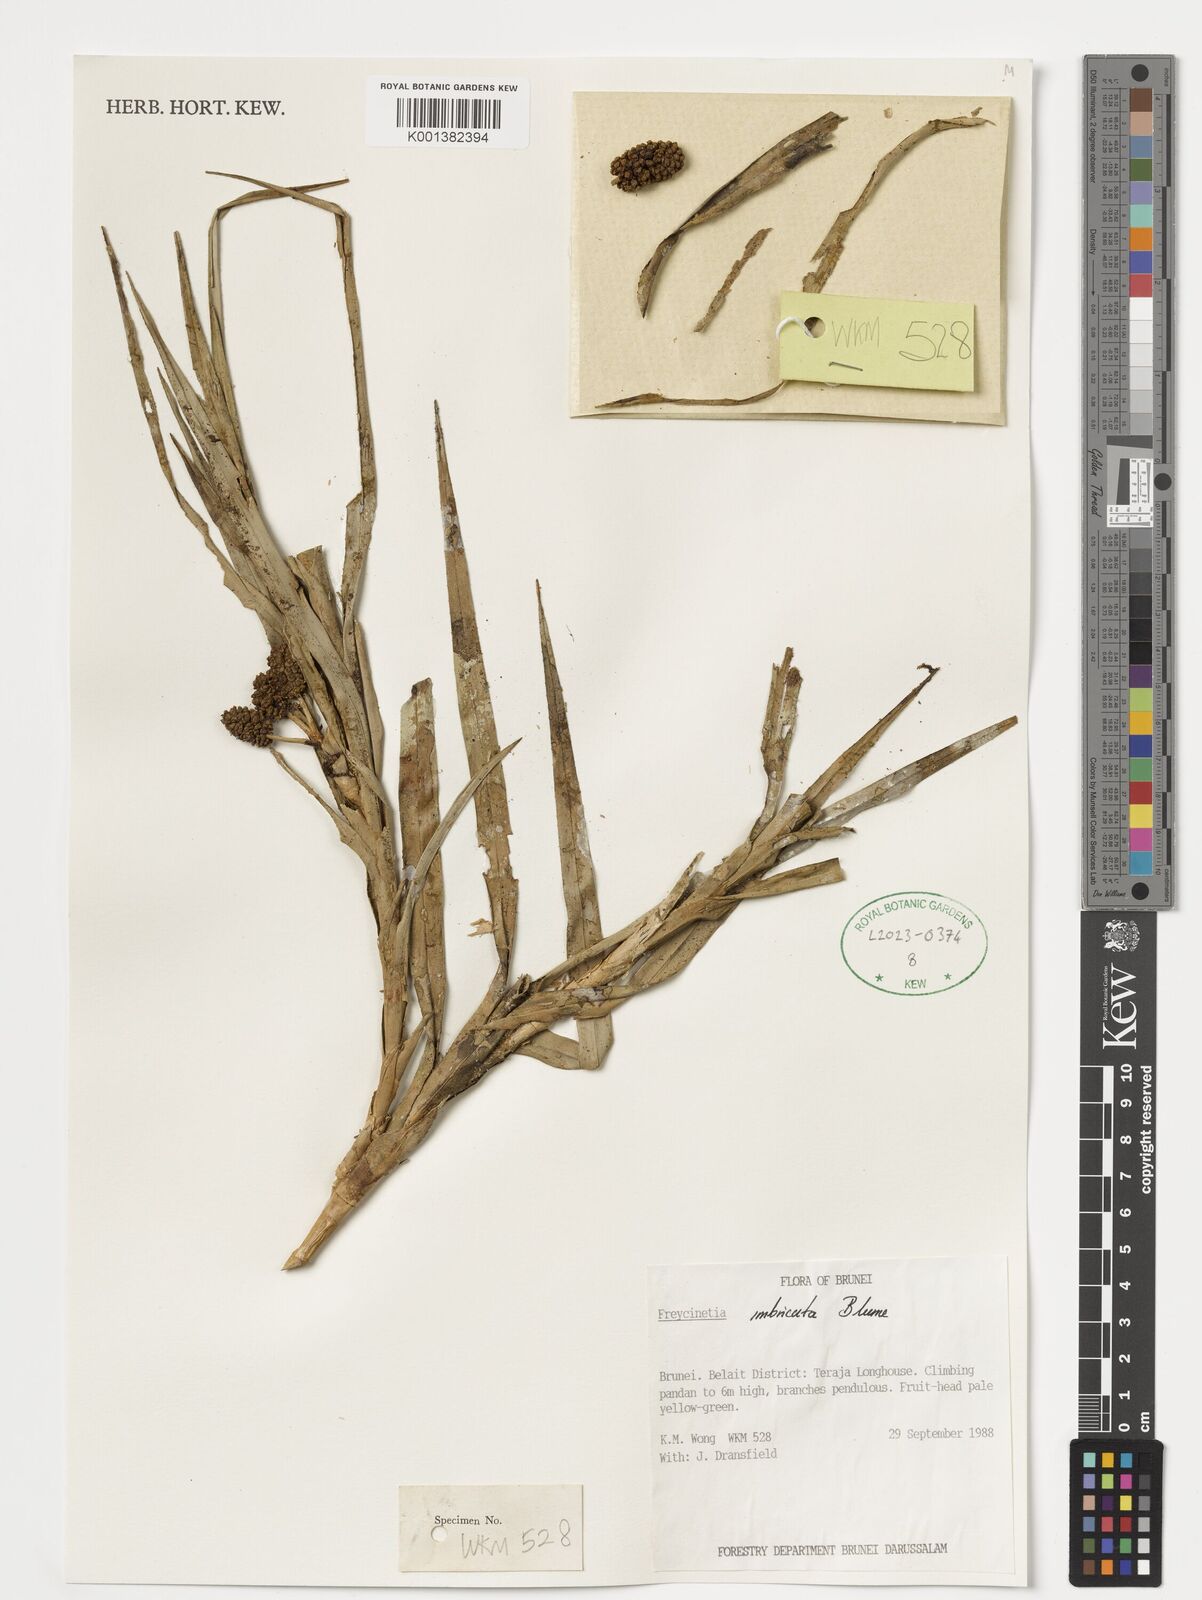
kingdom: Plantae
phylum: Tracheophyta
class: Liliopsida
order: Pandanales
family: Pandanaceae
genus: Freycinetia
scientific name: Freycinetia imbricata
